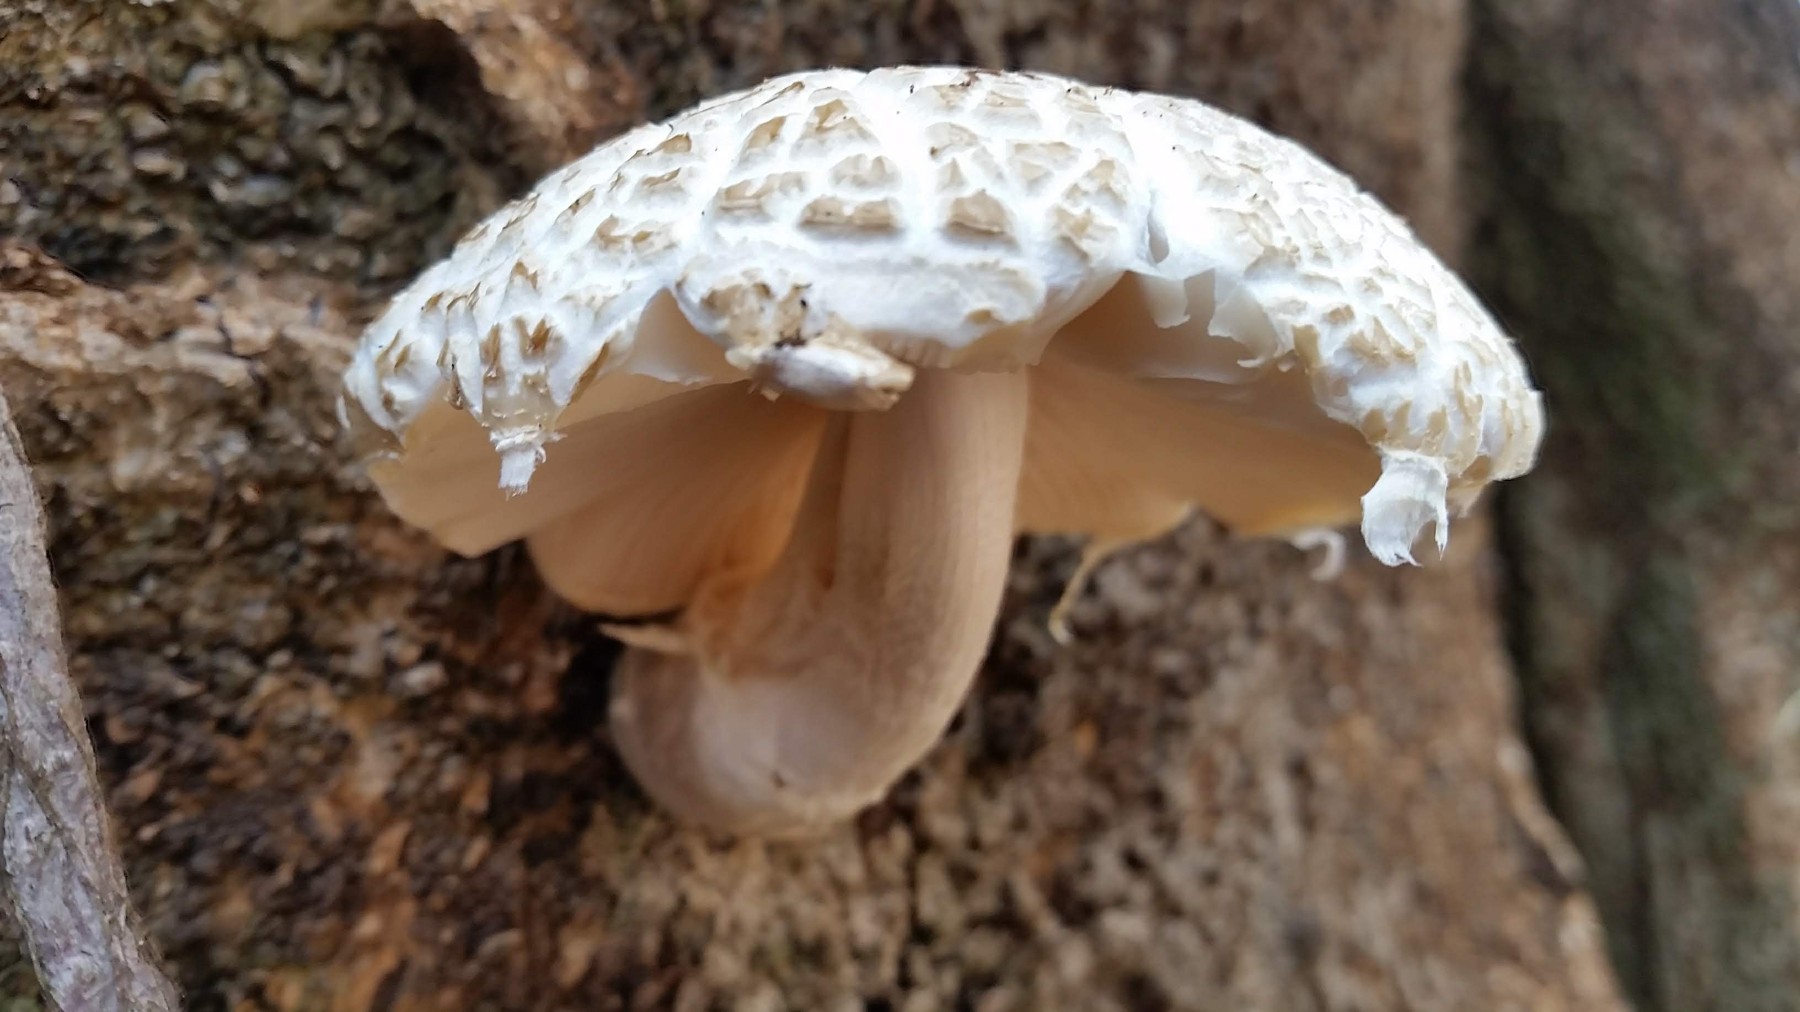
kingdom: Fungi
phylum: Basidiomycota
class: Agaricomycetes
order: Agaricales
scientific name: Agaricales
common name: champignonordenen
